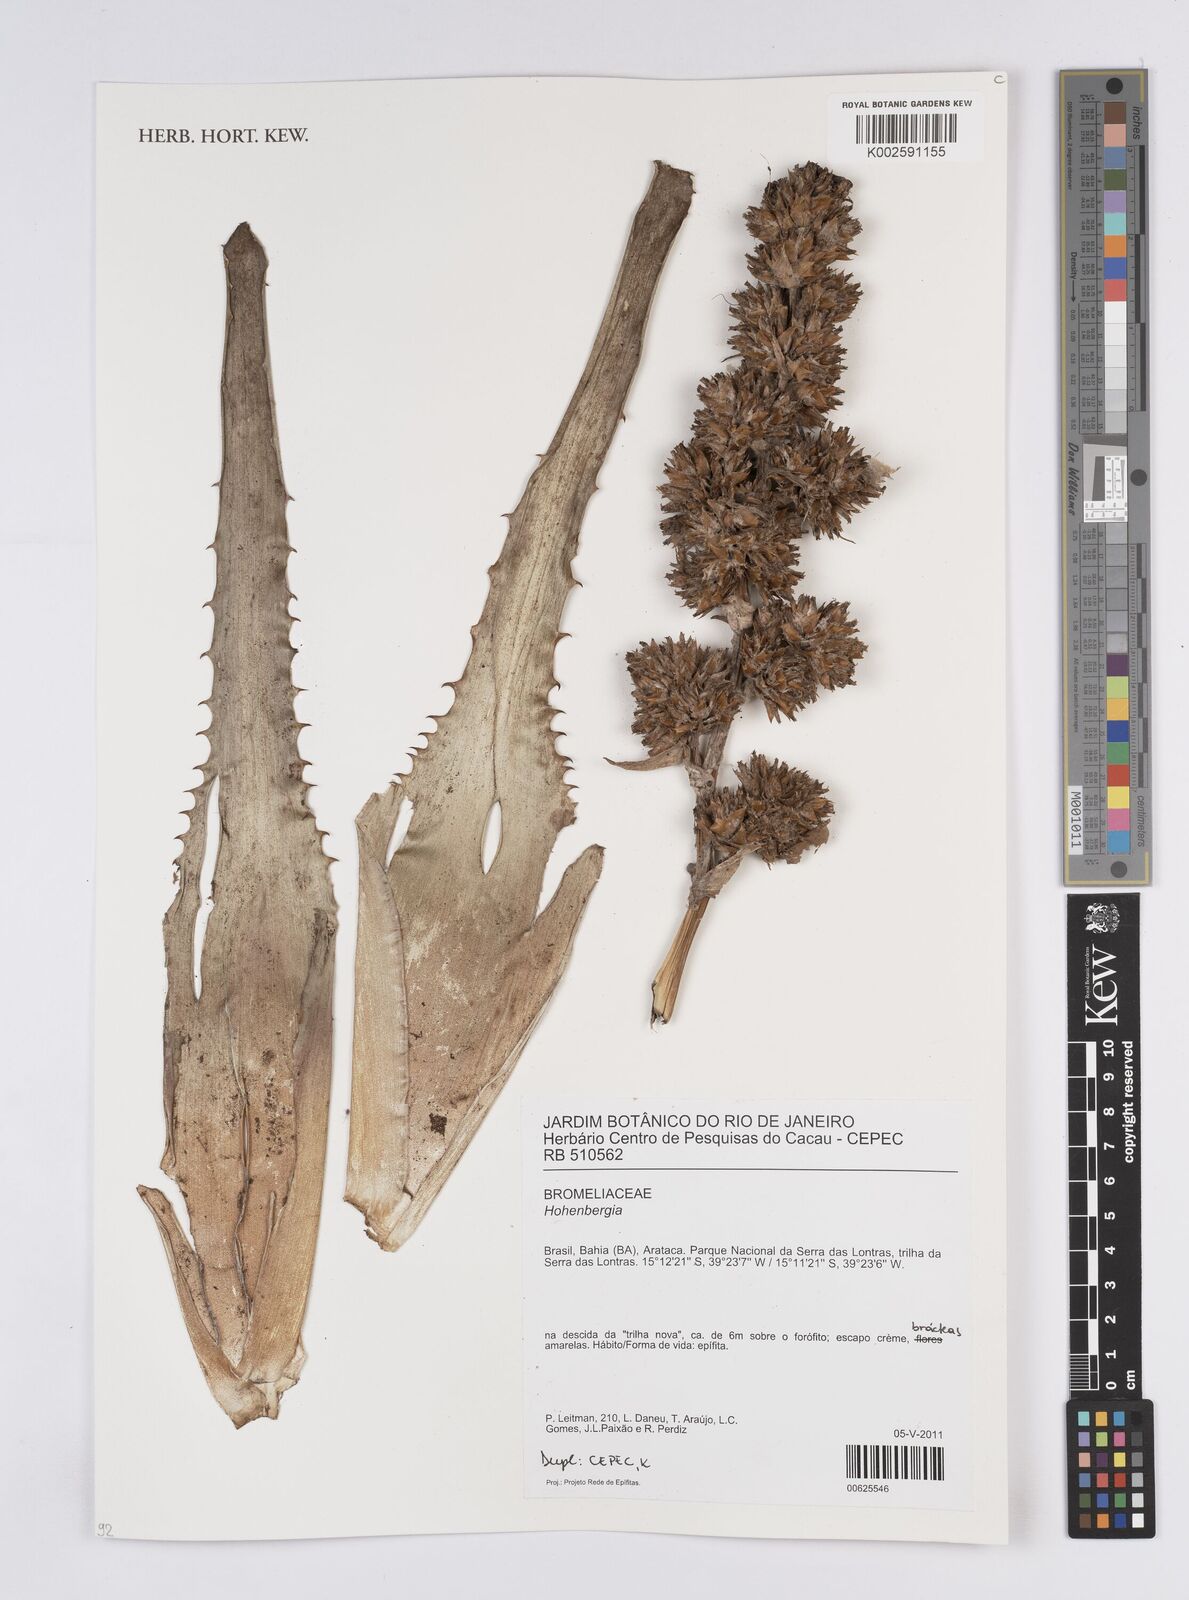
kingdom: Plantae
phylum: Tracheophyta
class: Liliopsida
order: Poales
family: Bromeliaceae
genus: Hohenbergia
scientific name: Hohenbergia
